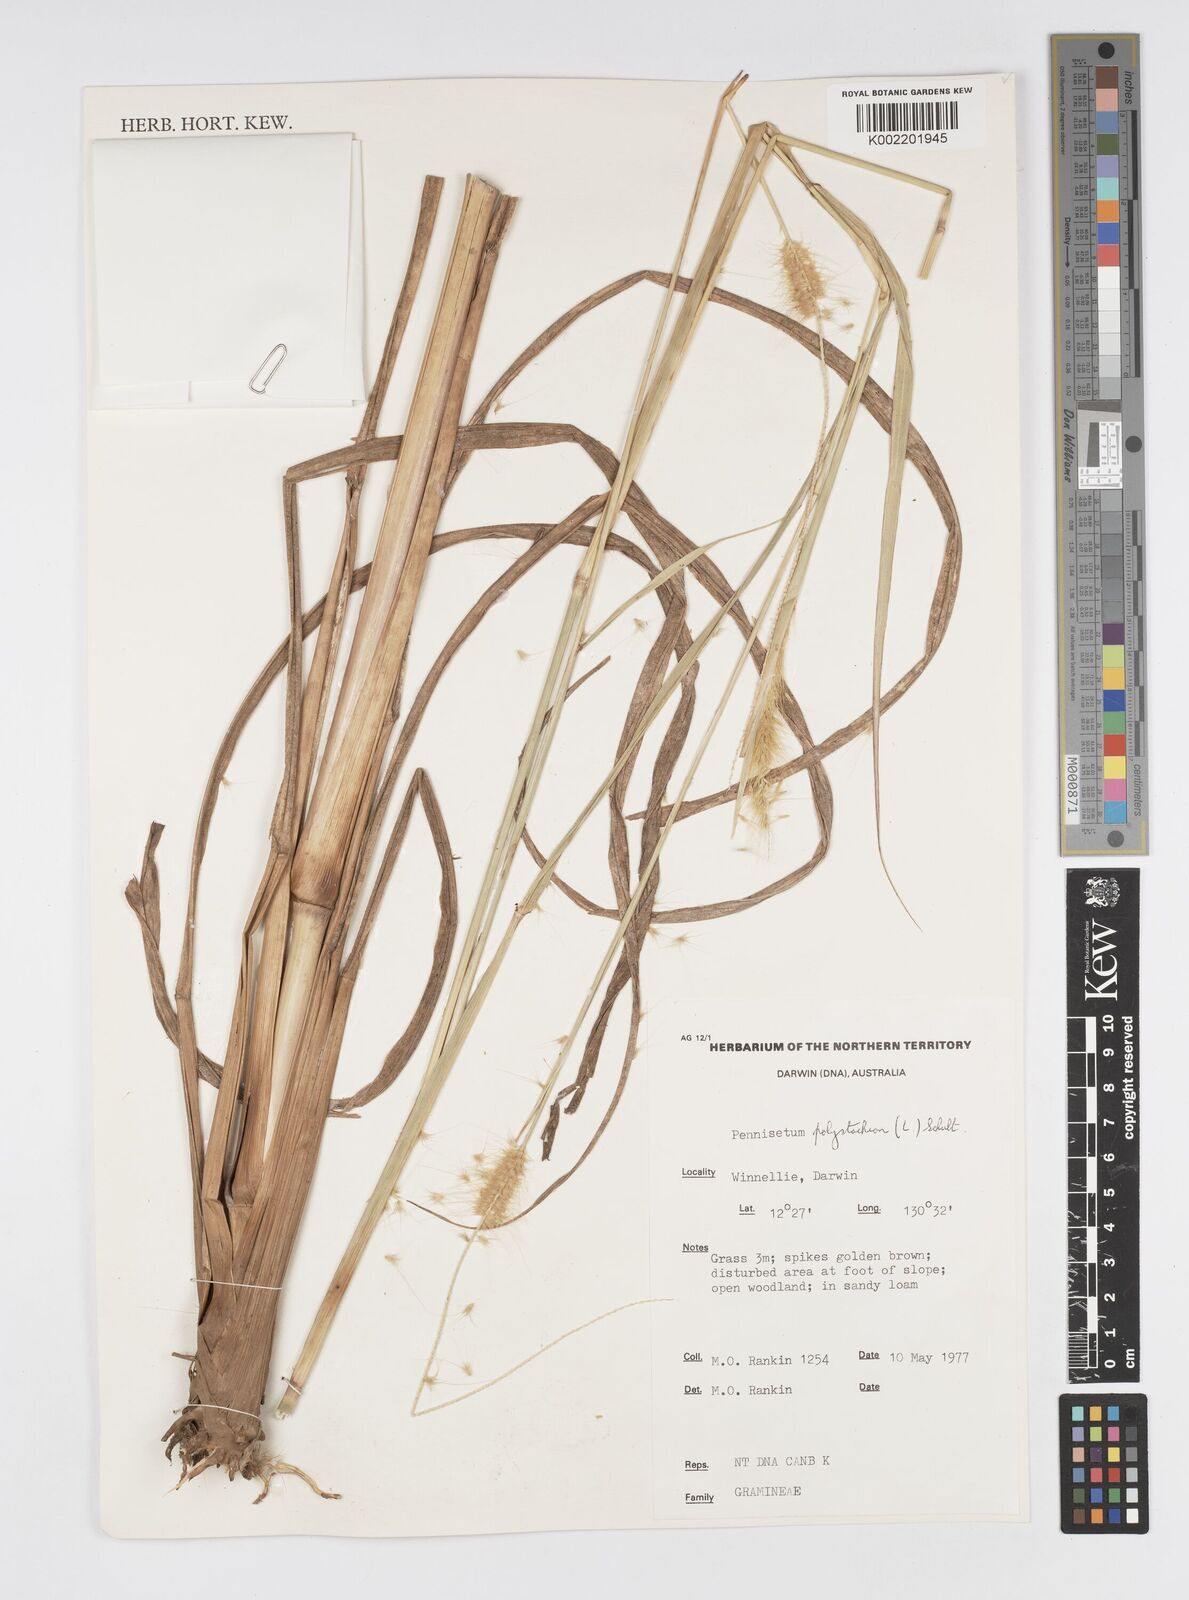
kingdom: Plantae
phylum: Tracheophyta
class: Liliopsida
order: Poales
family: Poaceae
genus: Setaria
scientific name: Setaria parviflora
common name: Knotroot bristle-grass
